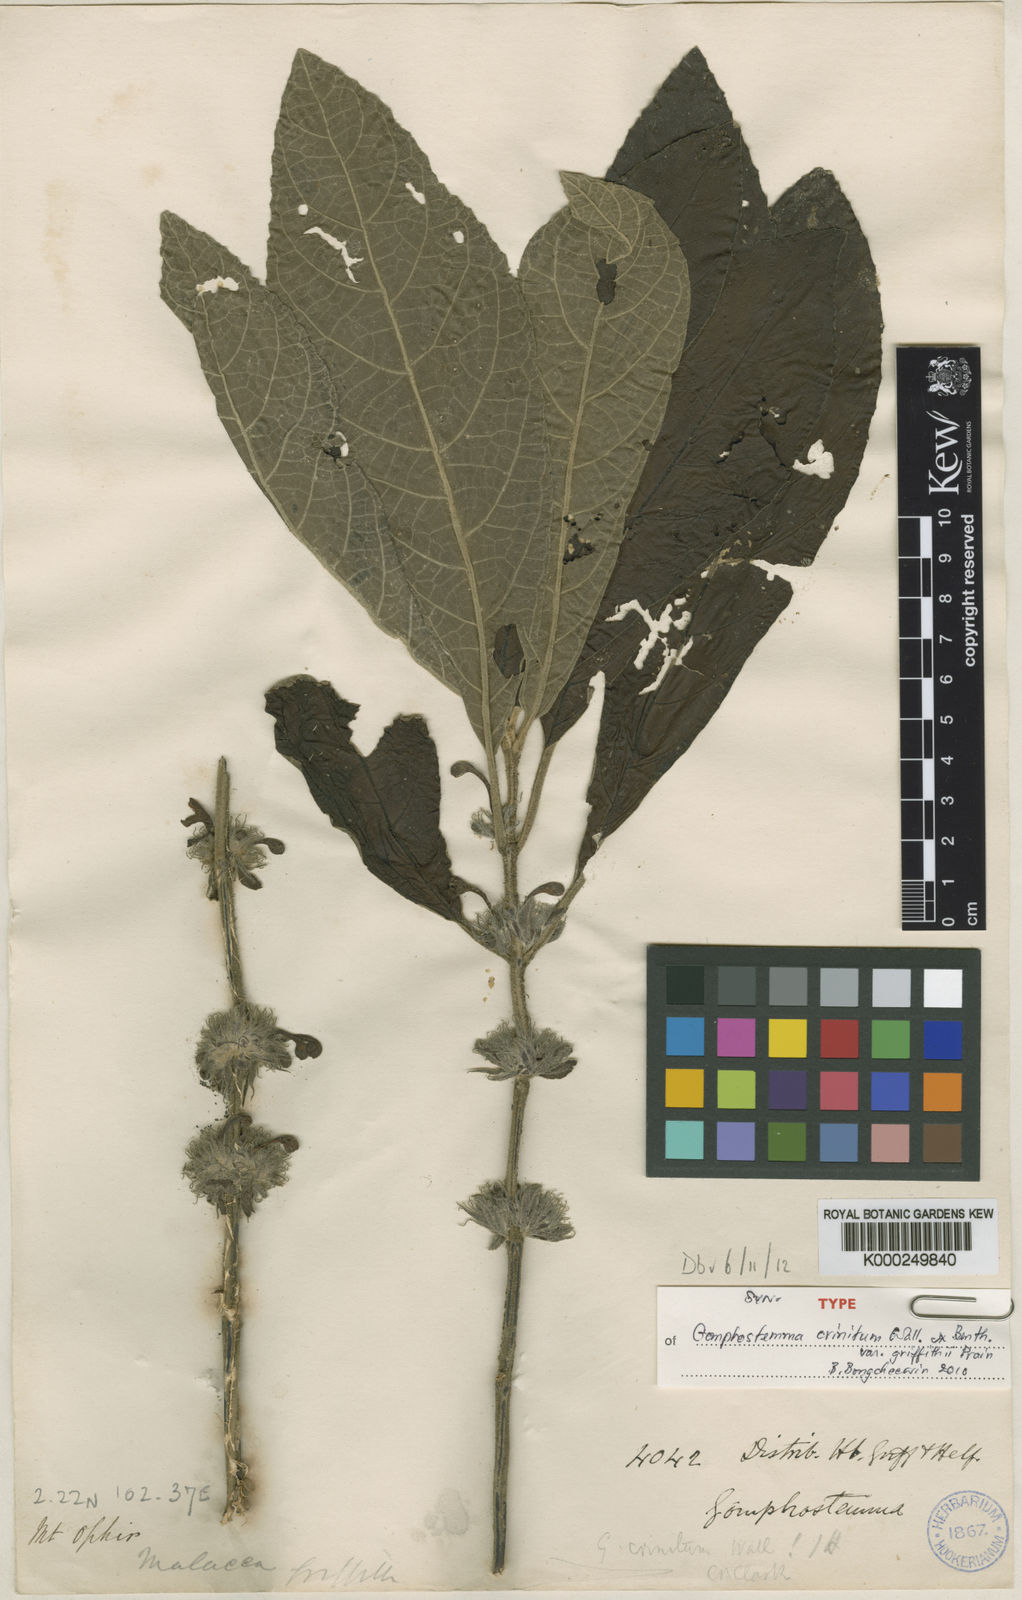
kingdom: Plantae
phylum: Tracheophyta
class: Magnoliopsida
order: Lamiales
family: Lamiaceae
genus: Gomphostemma
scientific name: Gomphostemma crinitum
